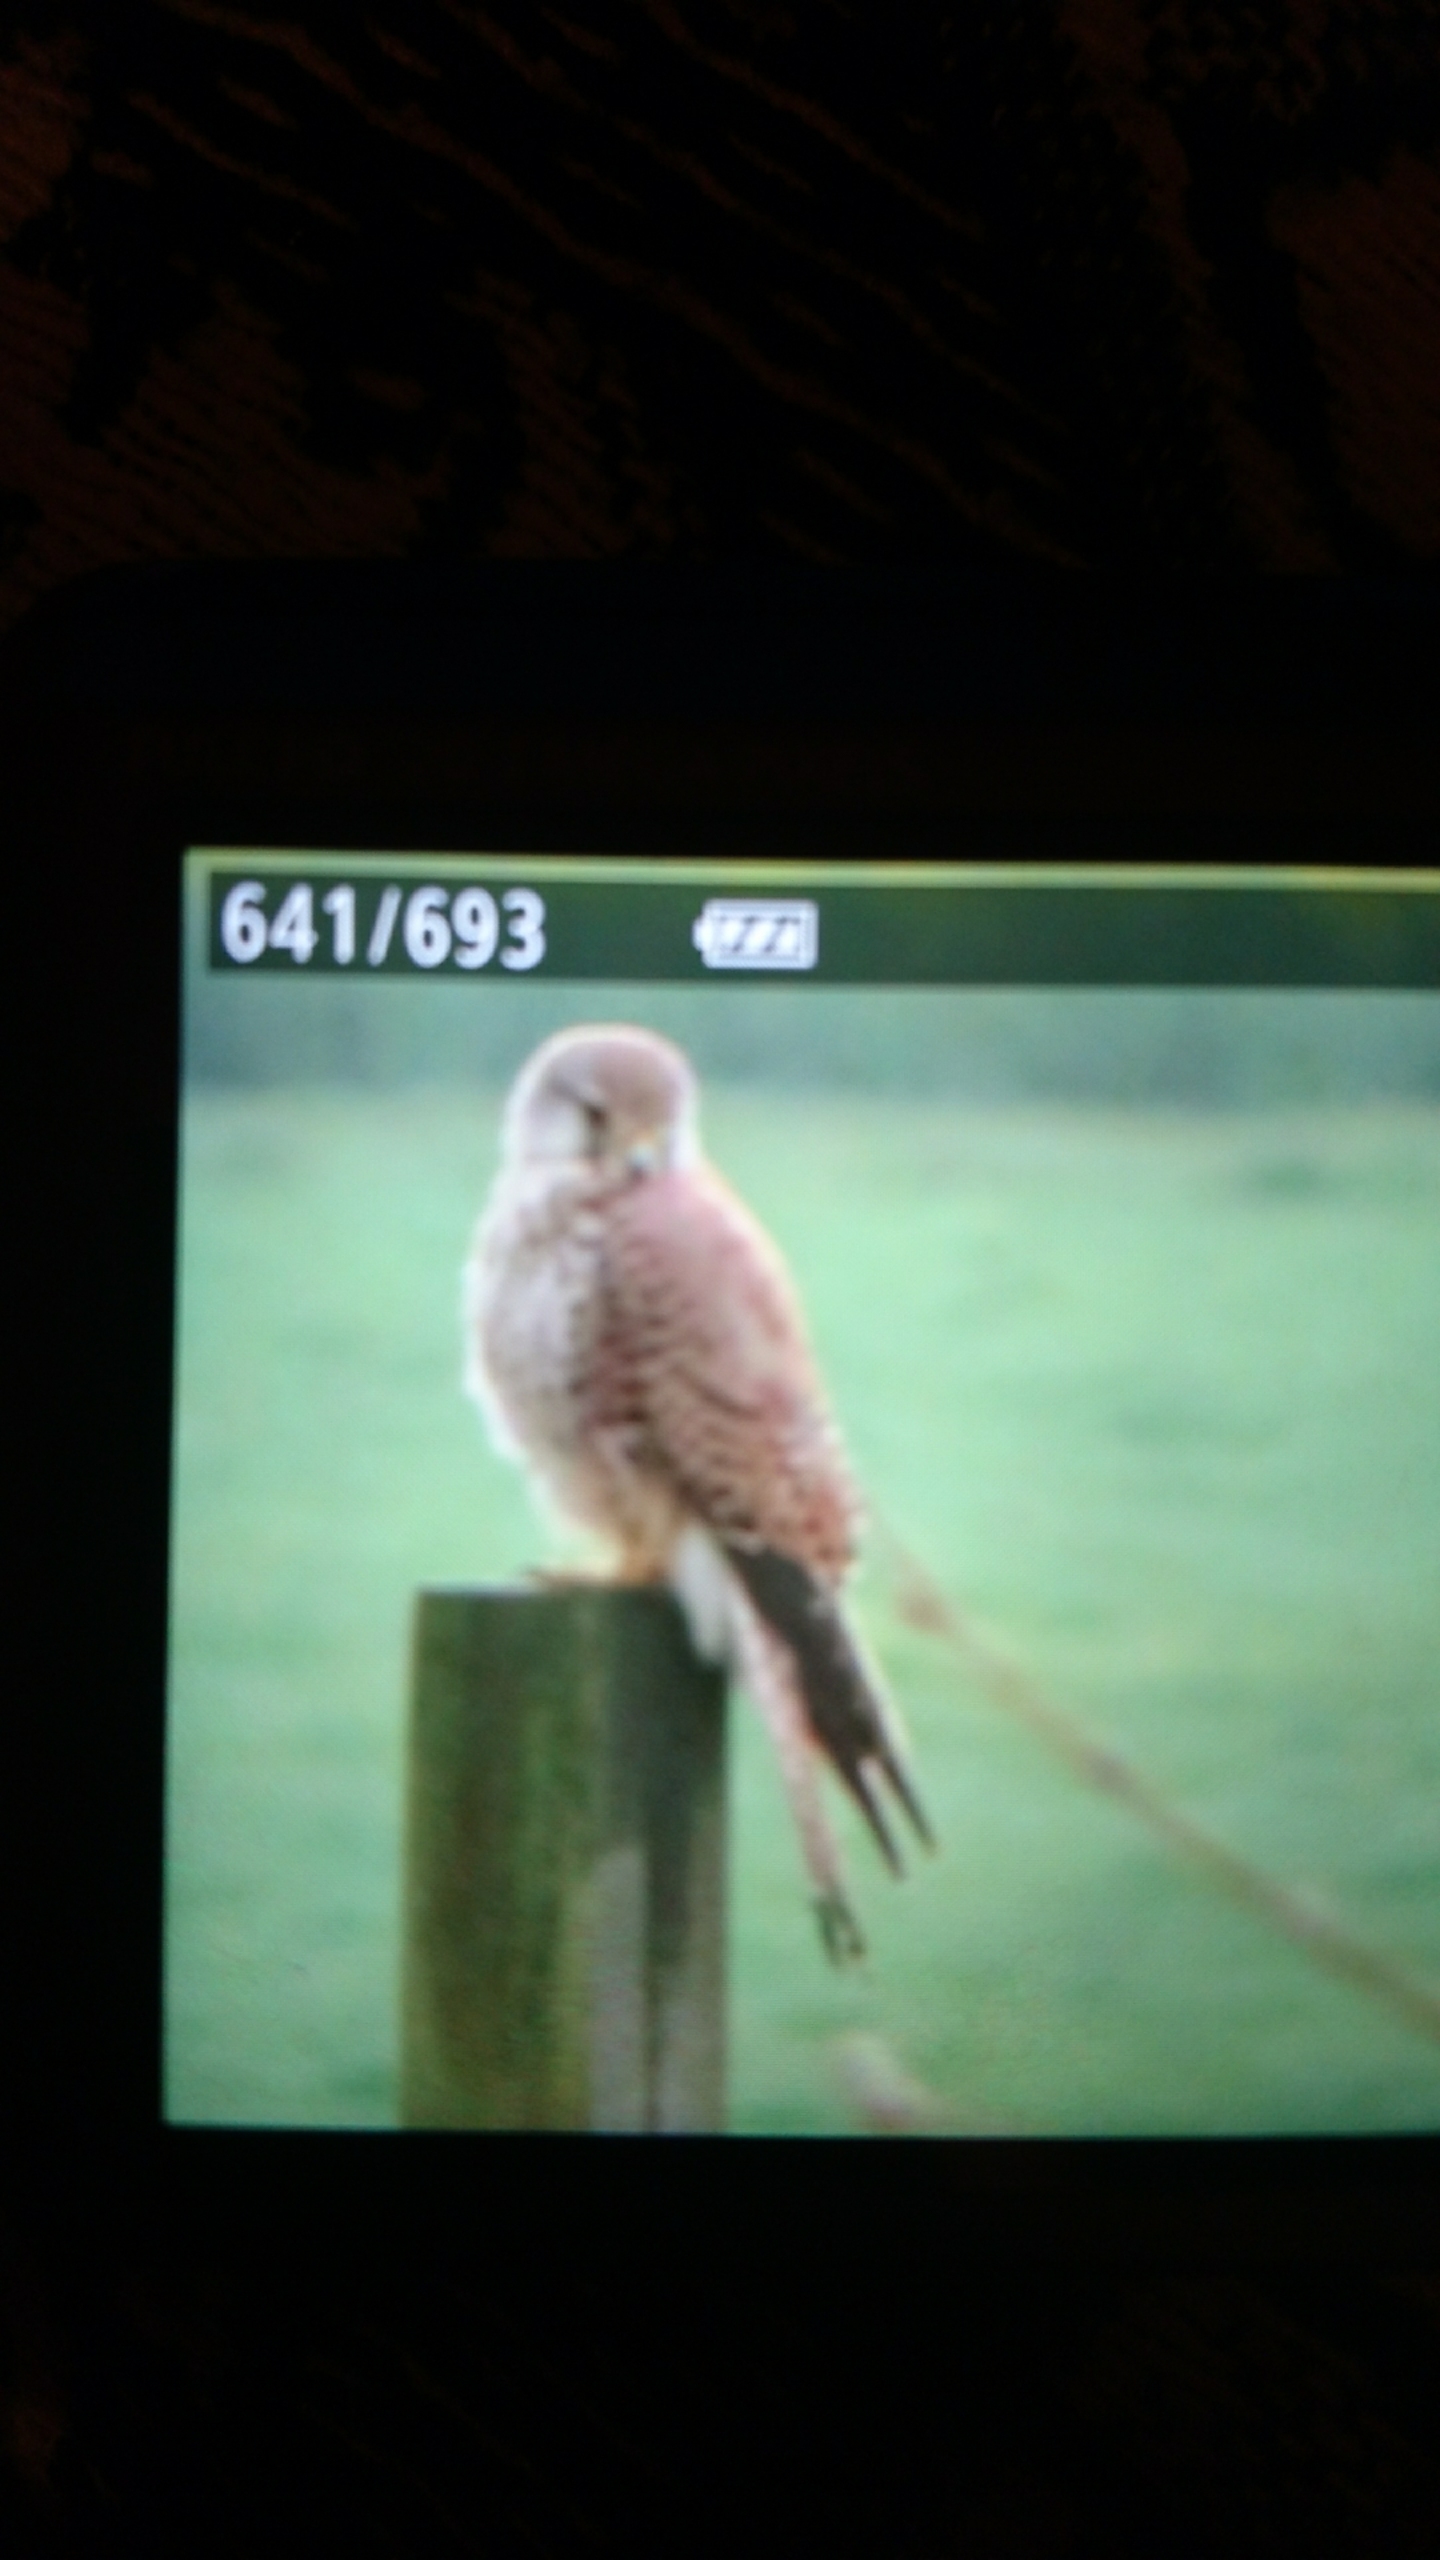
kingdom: Animalia
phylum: Chordata
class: Aves
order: Falconiformes
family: Falconidae
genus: Falco
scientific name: Falco tinnunculus
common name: Tårnfalk
